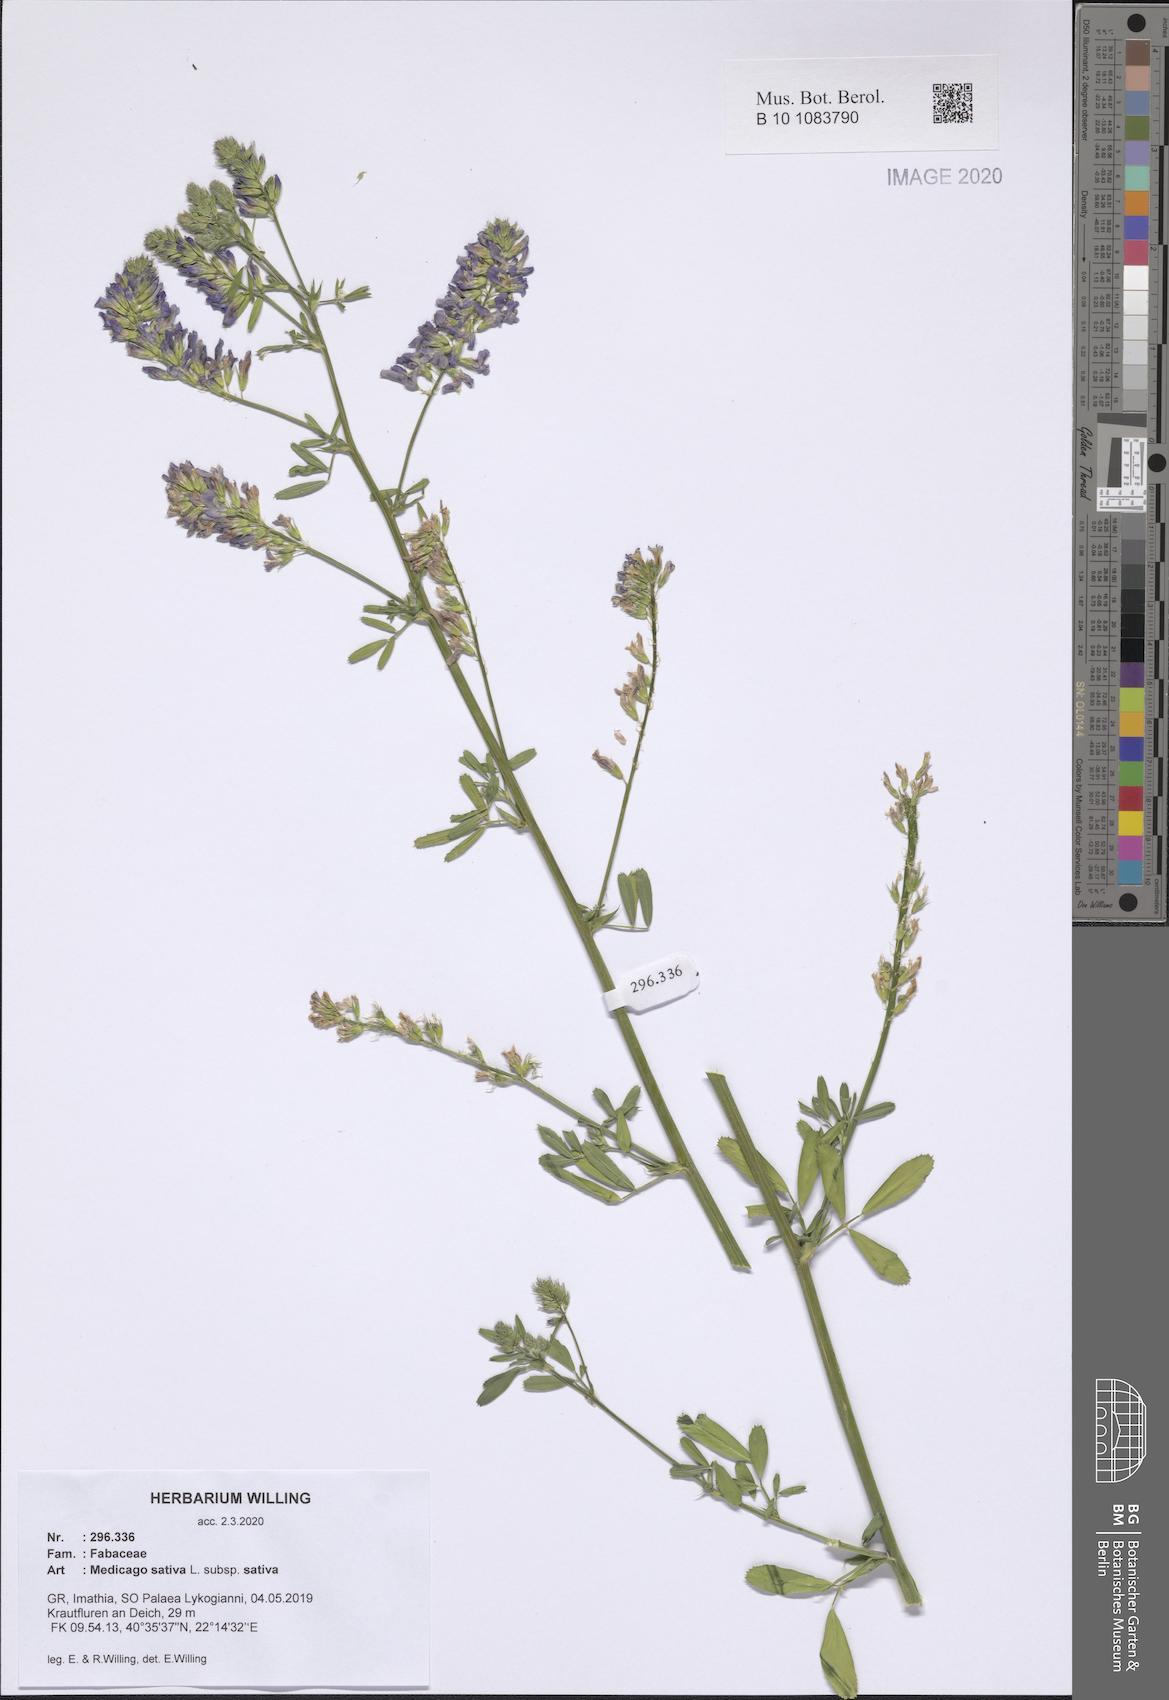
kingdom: Plantae
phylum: Tracheophyta
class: Magnoliopsida
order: Fabales
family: Fabaceae
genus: Medicago
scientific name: Medicago sativa
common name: Alfalfa
